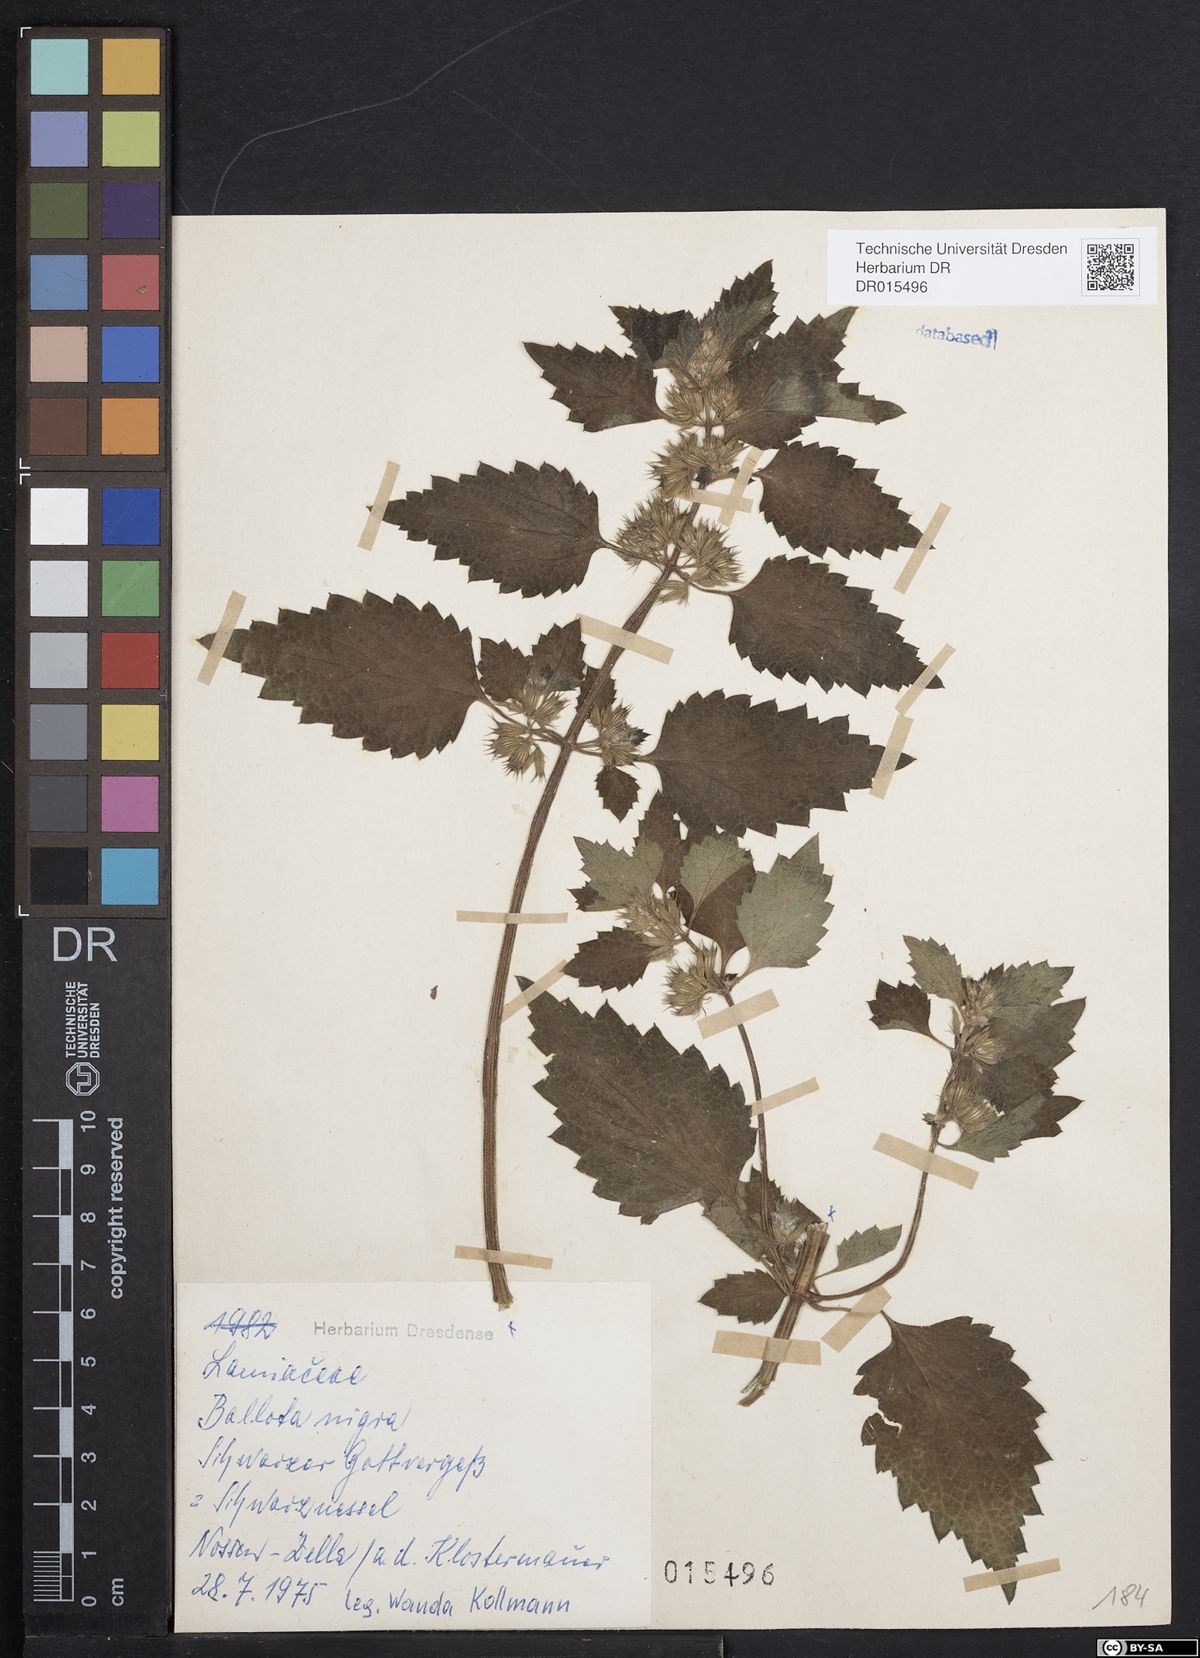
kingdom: Plantae
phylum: Tracheophyta
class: Magnoliopsida
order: Lamiales
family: Lamiaceae
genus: Ballota
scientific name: Ballota nigra
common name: Black horehound
